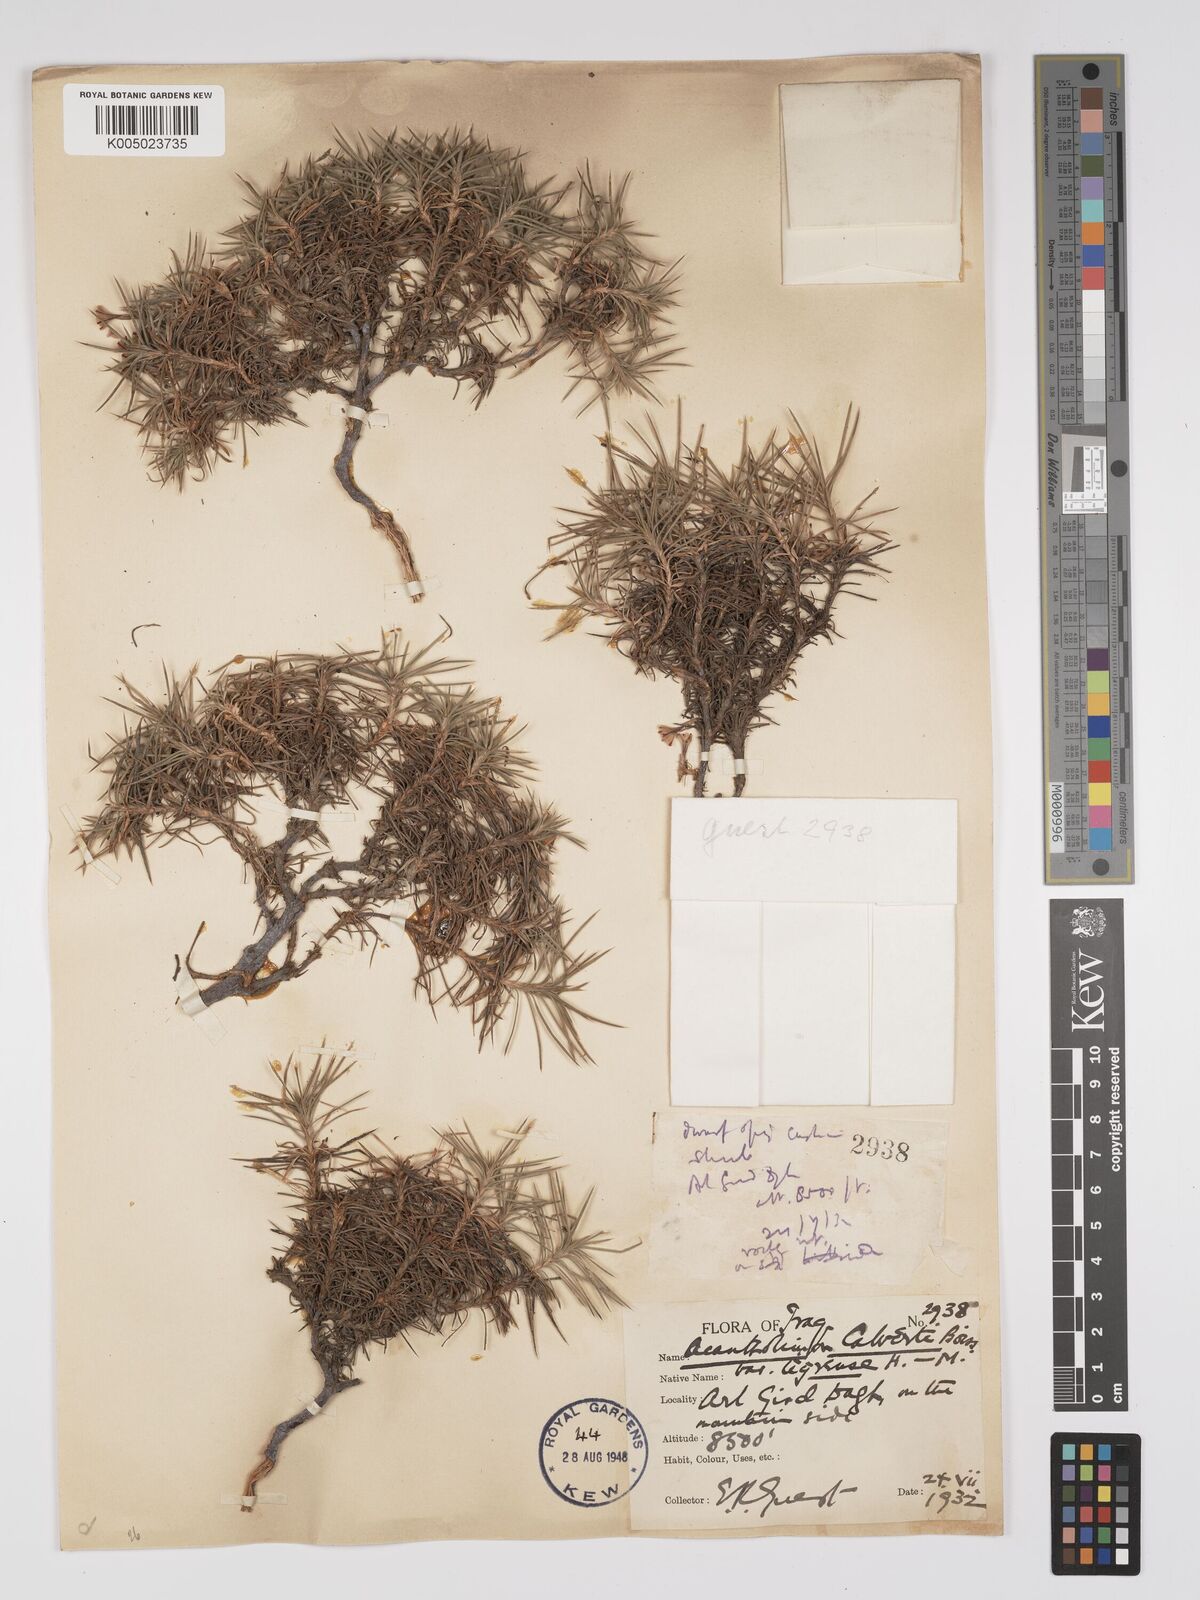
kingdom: Plantae
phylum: Tracheophyta
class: Magnoliopsida
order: Caryophyllales
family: Plumbaginaceae
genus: Acantholimon
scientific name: Acantholimon calvertii
